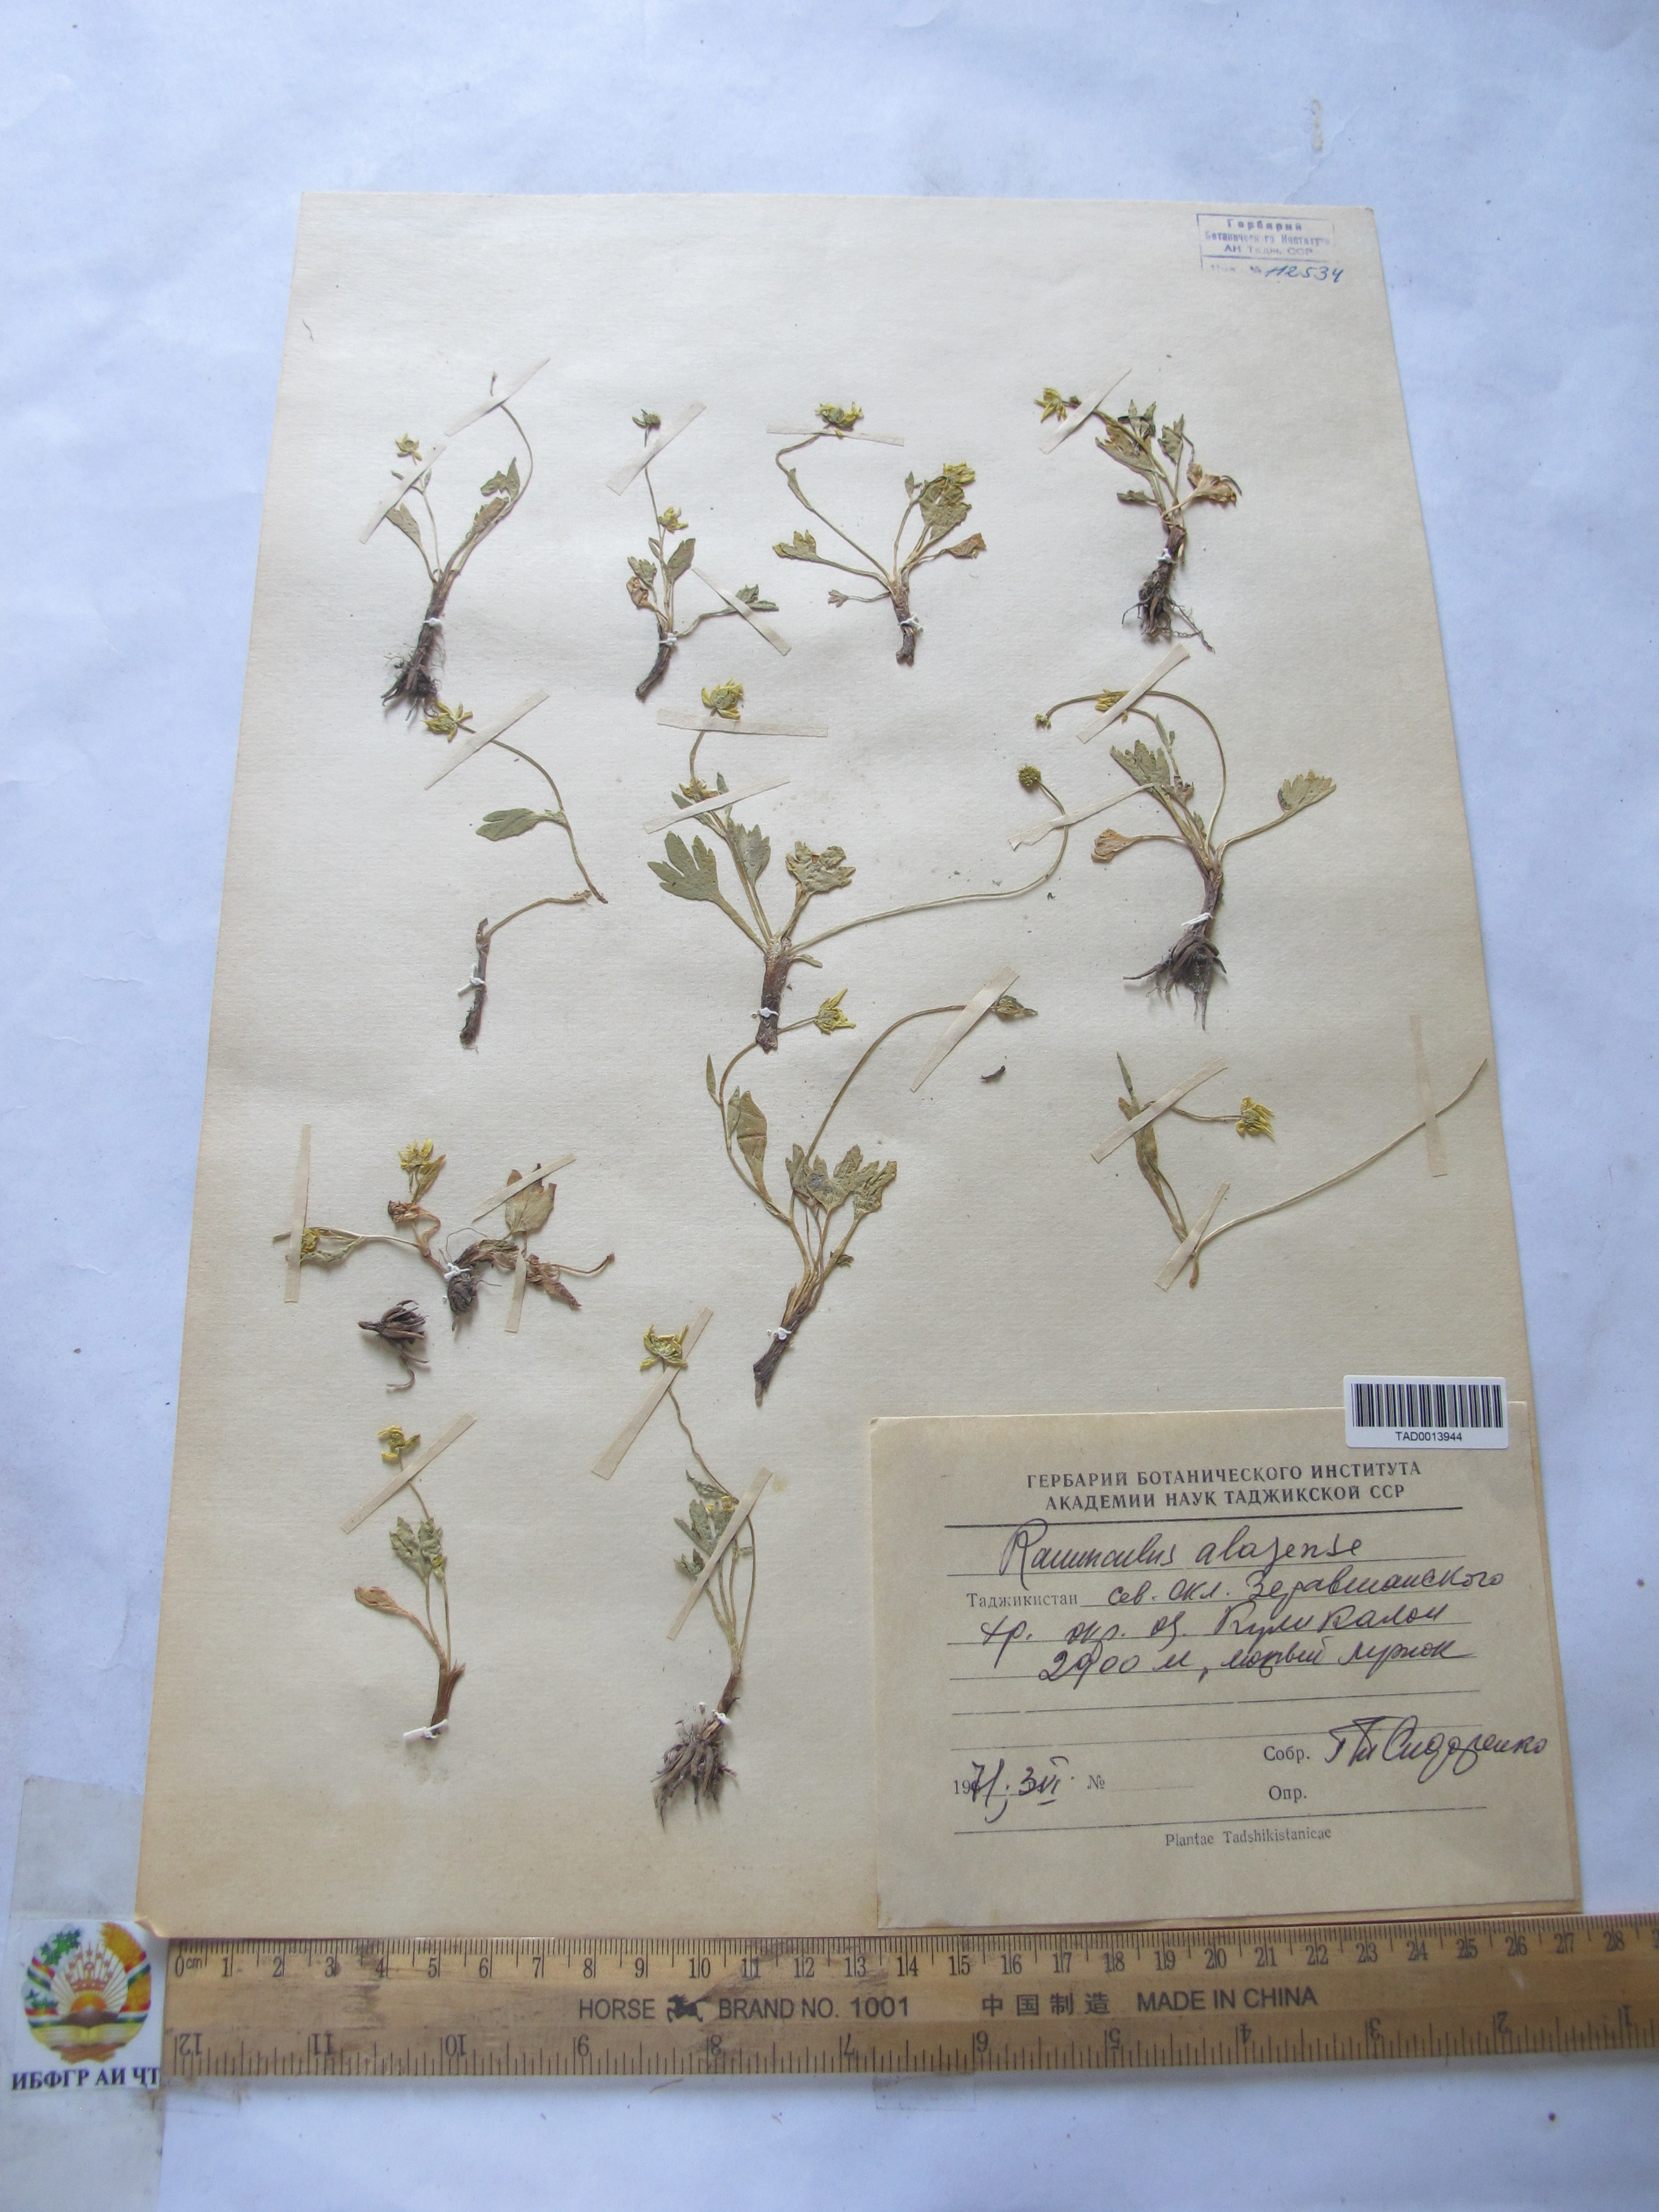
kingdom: Plantae
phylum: Tracheophyta
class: Magnoliopsida
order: Ranunculales
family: Ranunculaceae
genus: Ranunculus
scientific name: Ranunculus alaiensis
